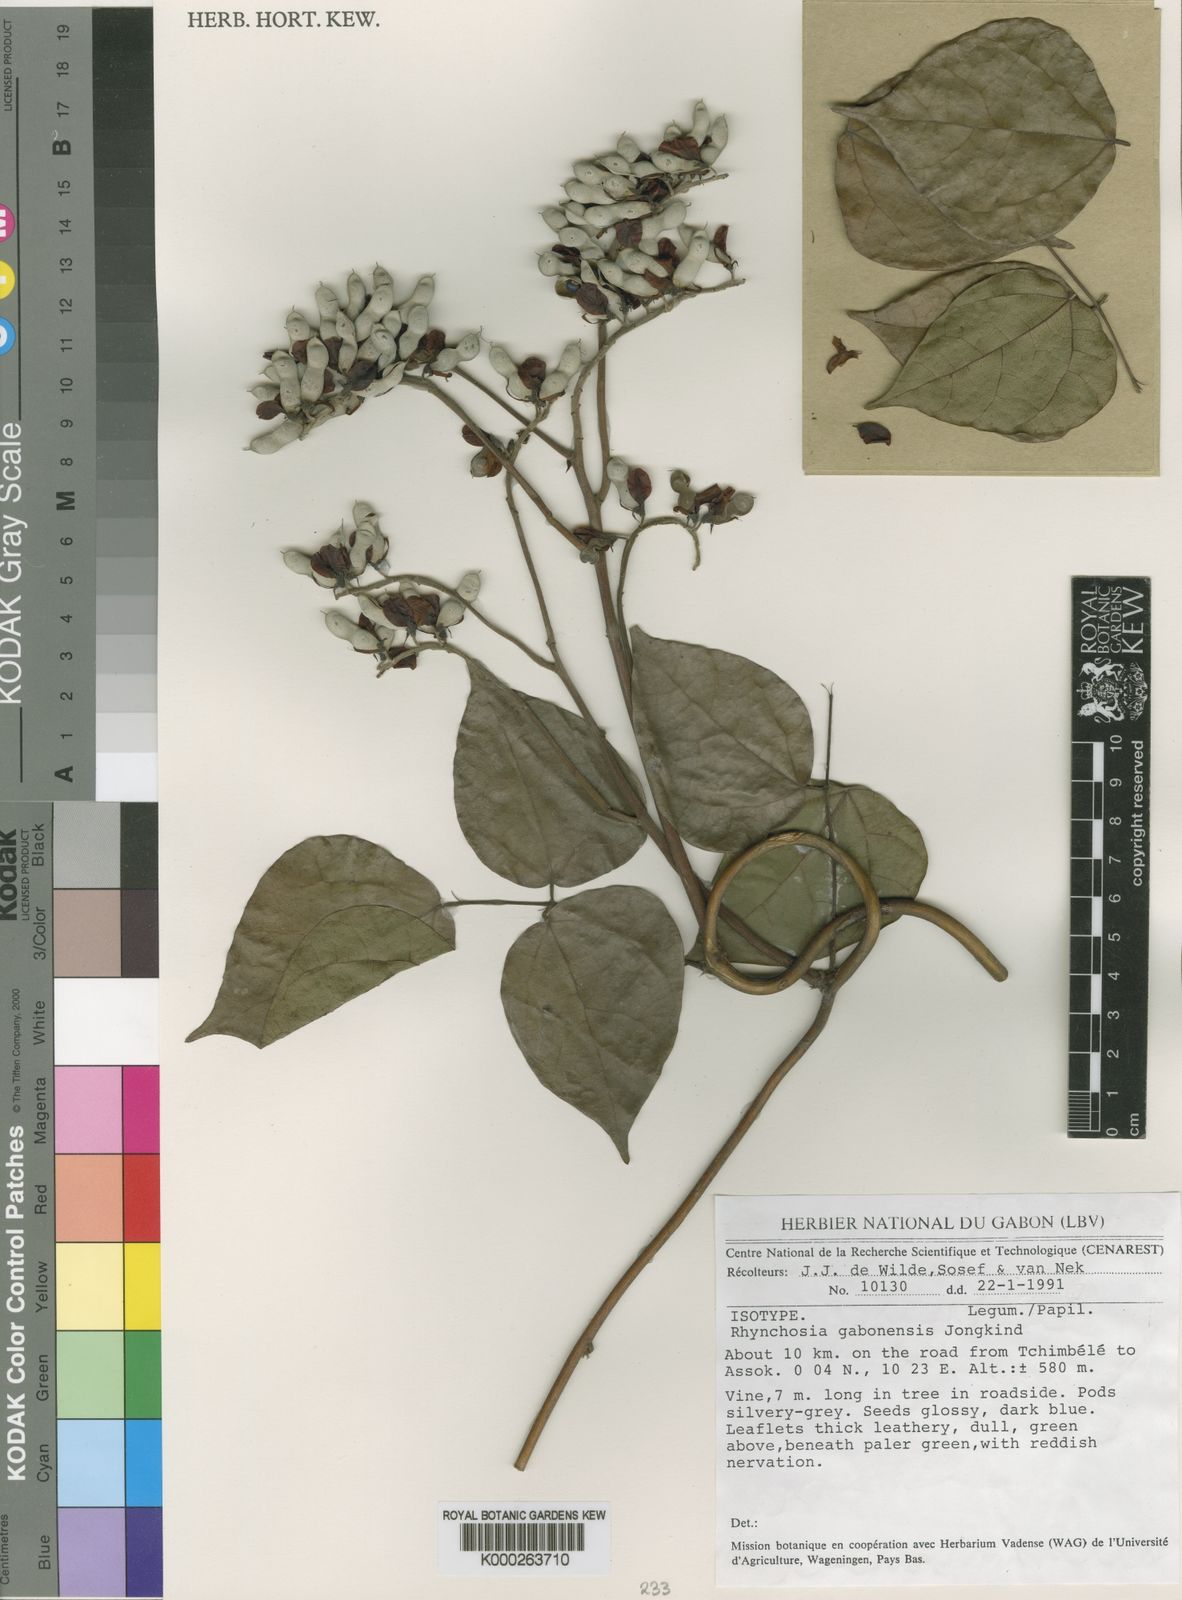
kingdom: Plantae
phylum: Tracheophyta
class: Magnoliopsida
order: Fabales
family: Fabaceae
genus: Rhynchosia
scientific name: Rhynchosia gabonensis
